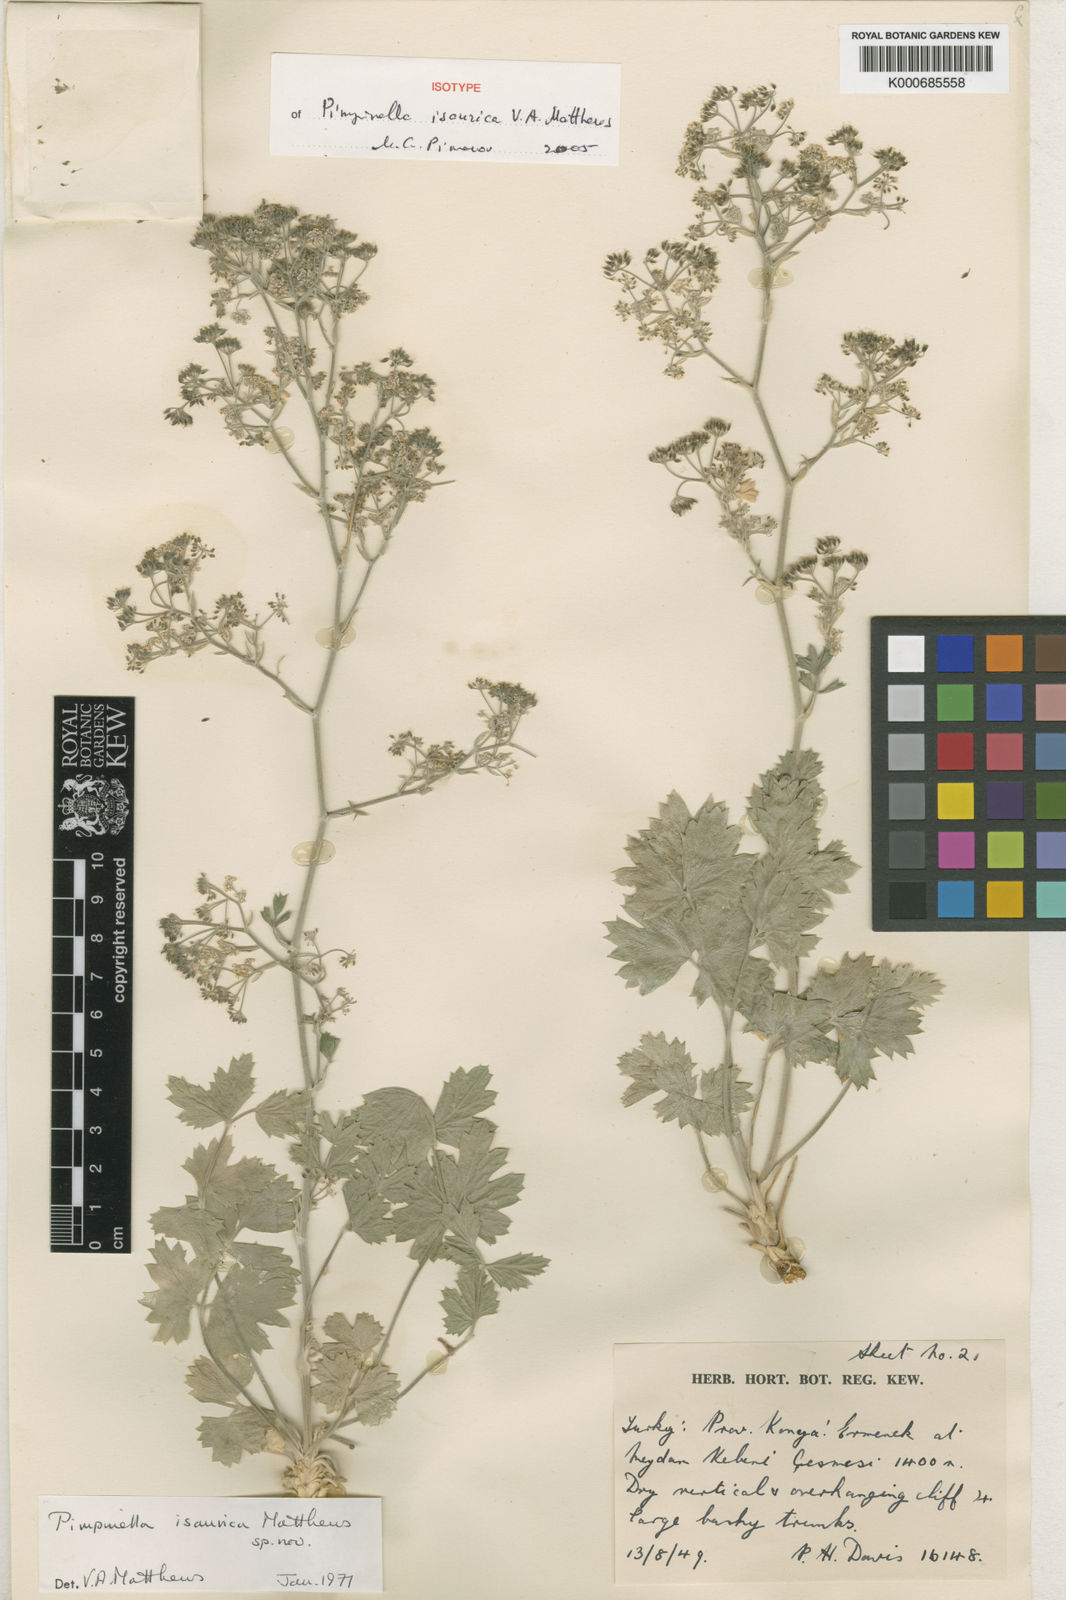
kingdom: Plantae
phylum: Tracheophyta
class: Magnoliopsida
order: Apiales
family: Apiaceae
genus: Pimpinella
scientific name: Pimpinella isaurica
